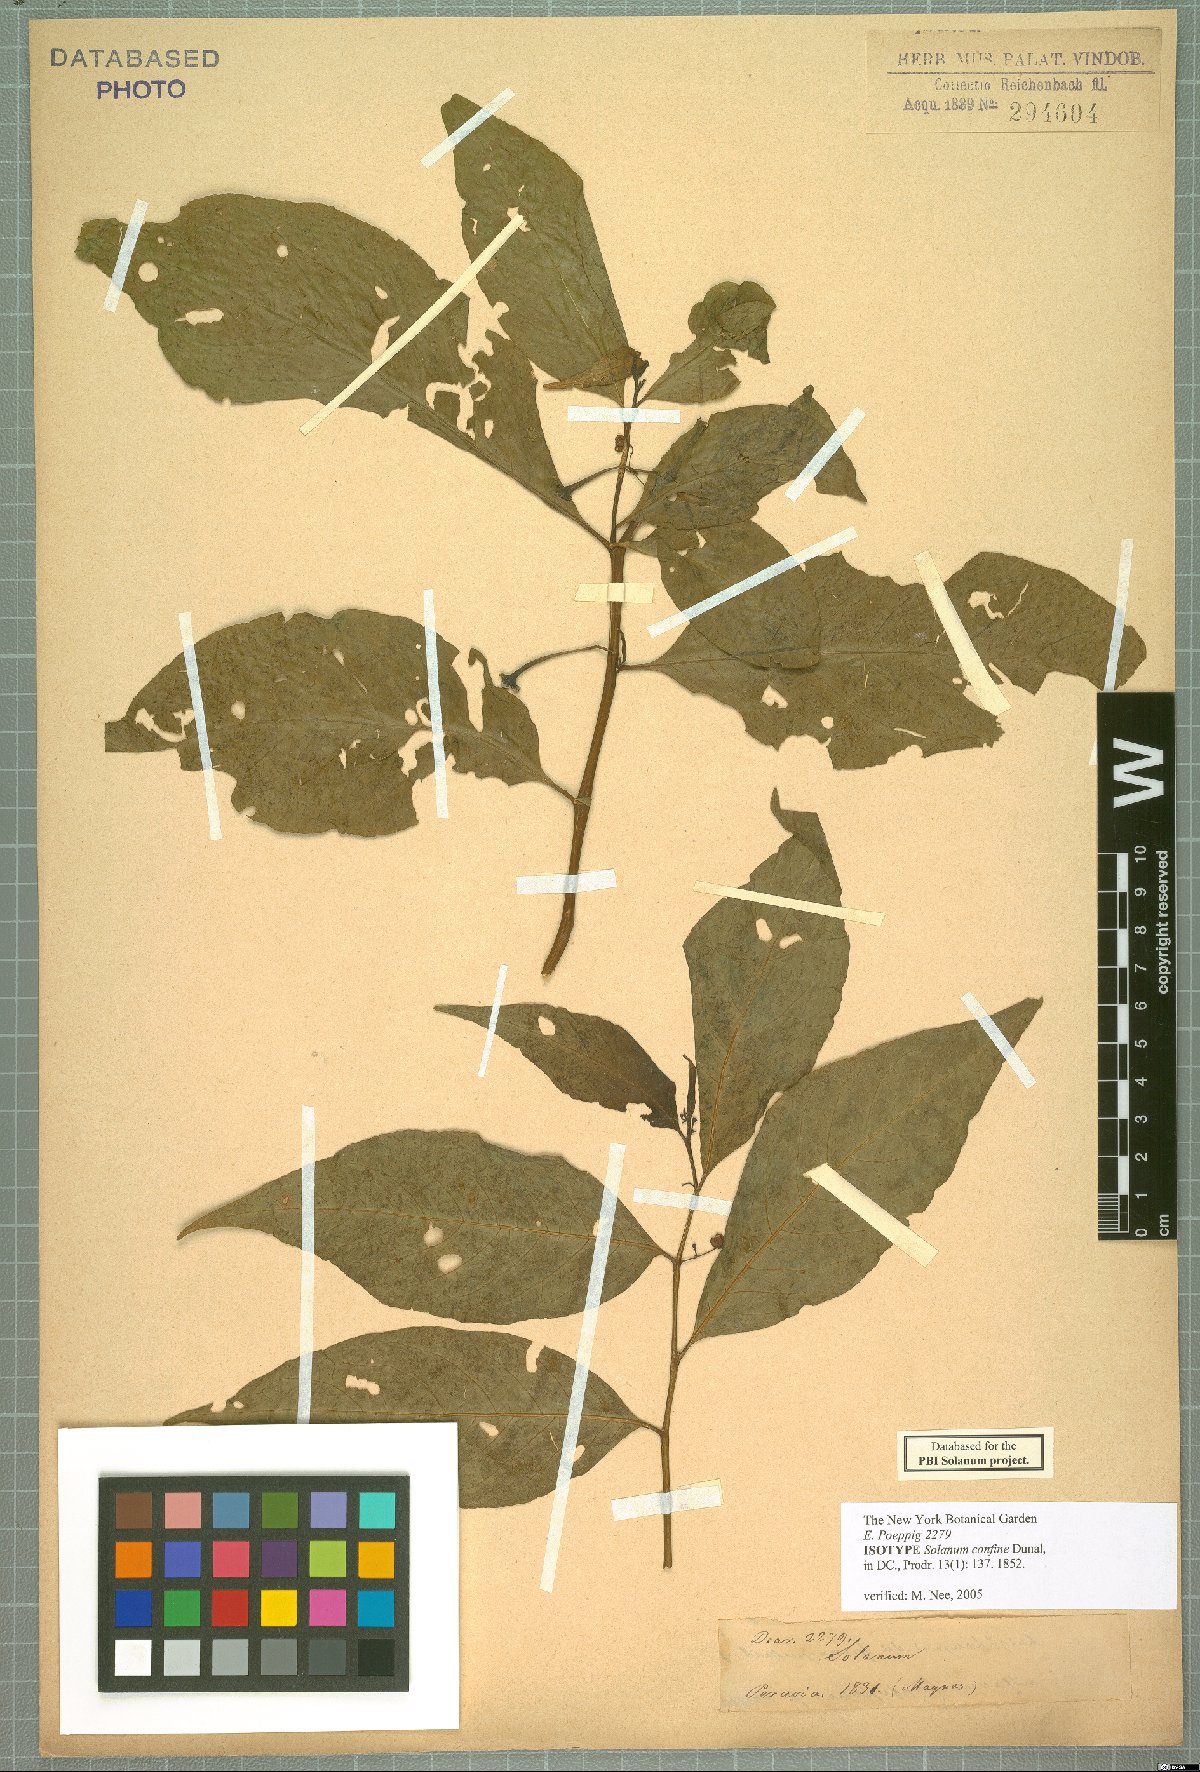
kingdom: Plantae
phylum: Tracheophyta
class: Magnoliopsida
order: Solanales
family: Solanaceae
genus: Solanum
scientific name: Solanum confine
